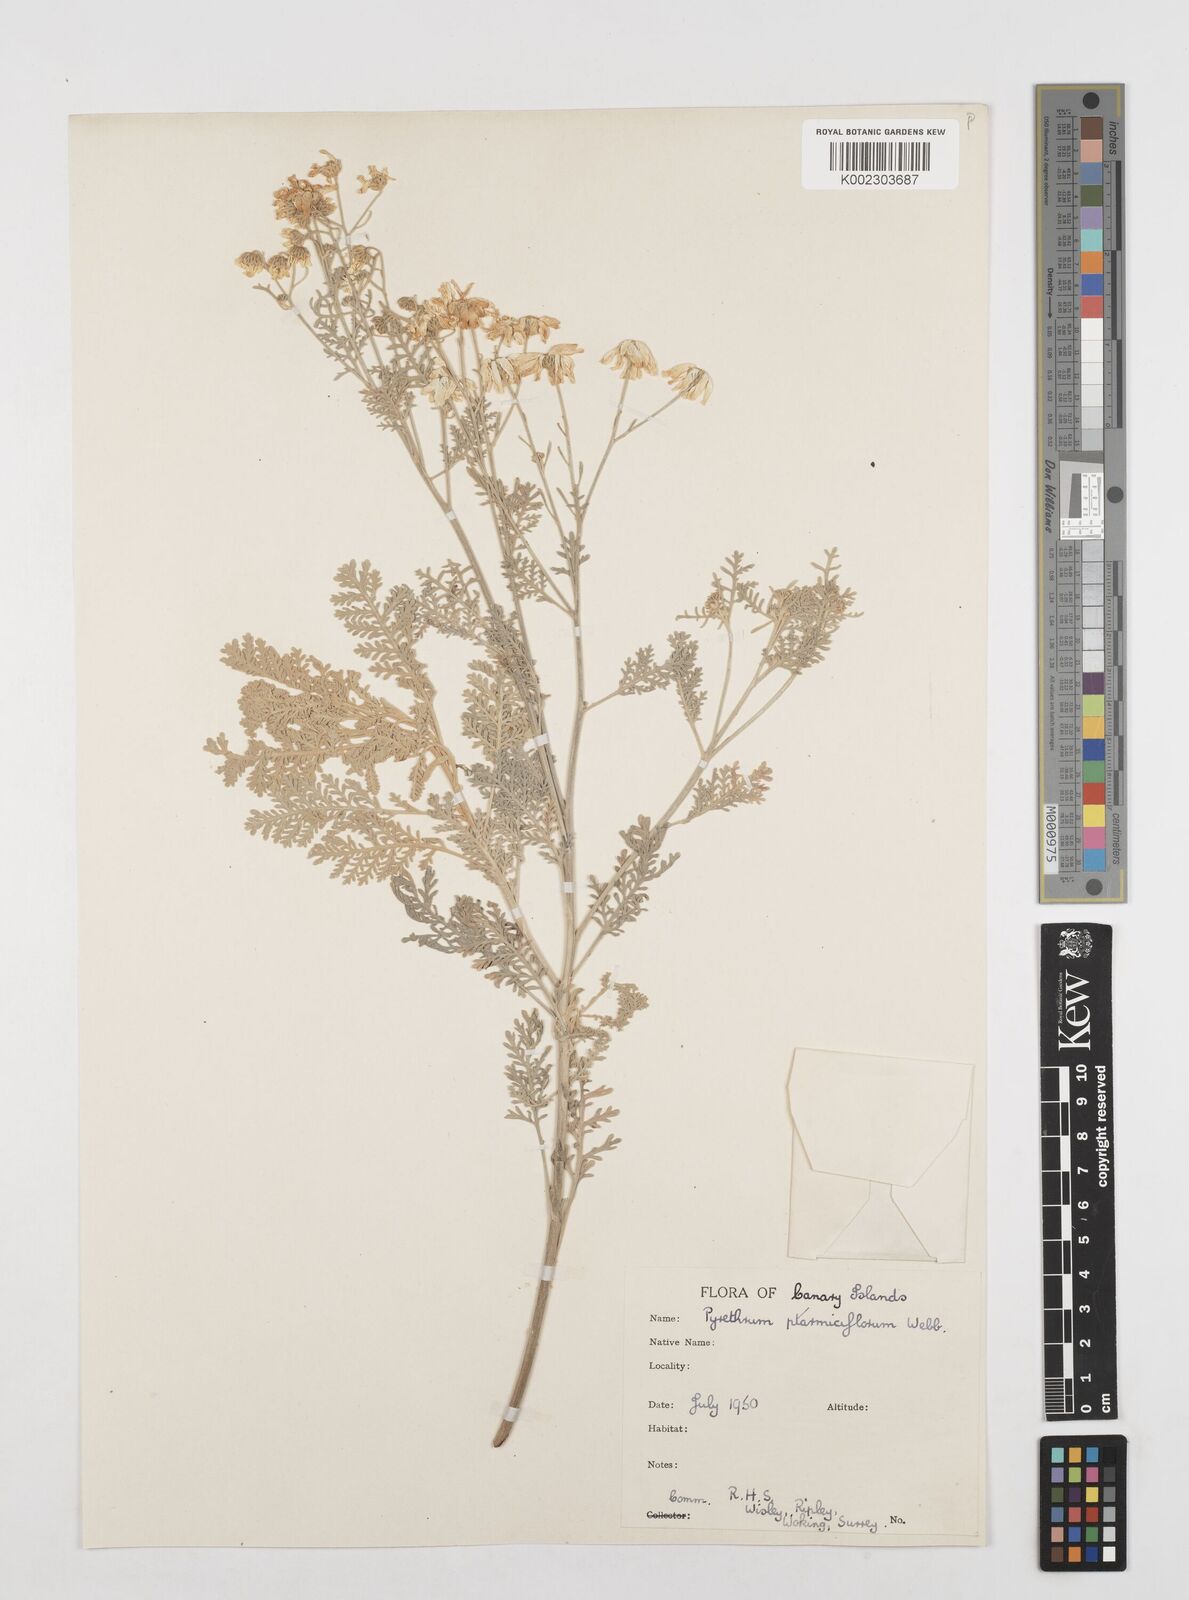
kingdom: Plantae
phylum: Tracheophyta
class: Magnoliopsida
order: Asterales
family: Asteraceae
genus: Gonospermum
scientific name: Gonospermum ptarmiciflorum
